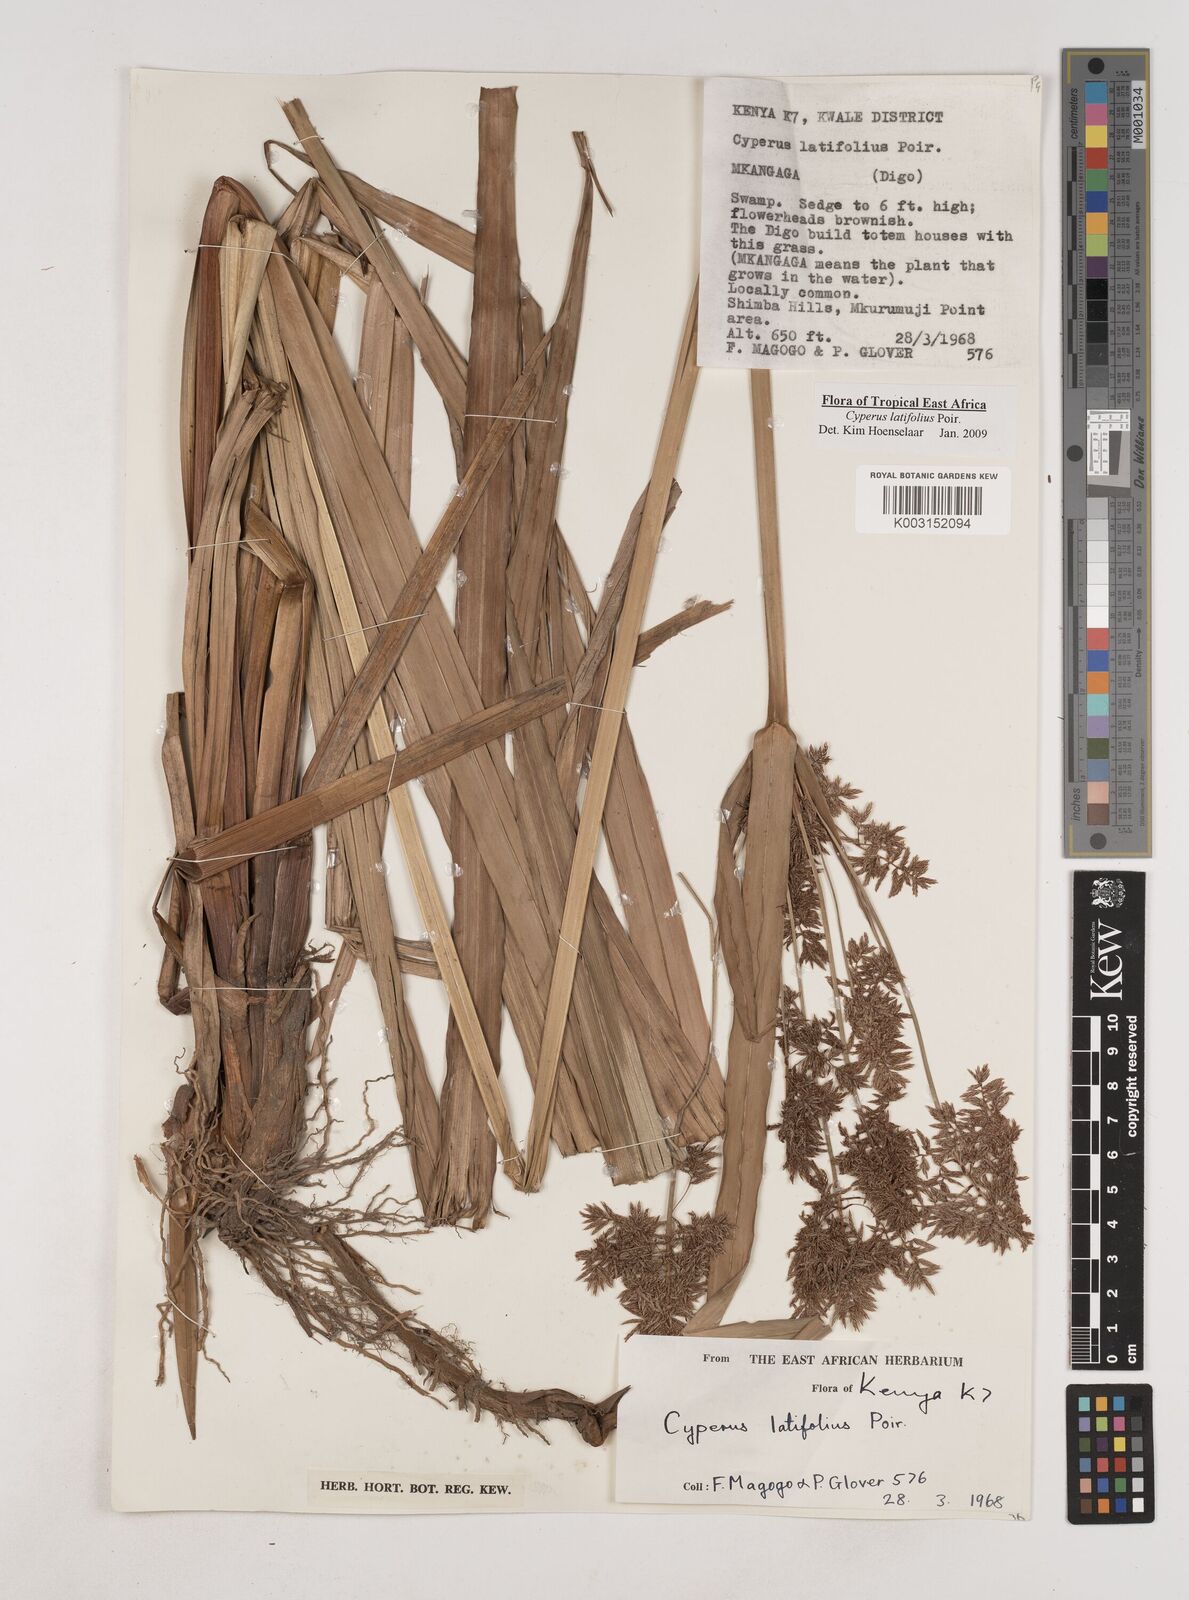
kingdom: Plantae
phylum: Tracheophyta
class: Liliopsida
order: Poales
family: Cyperaceae
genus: Cyperus
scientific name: Cyperus latifolius
